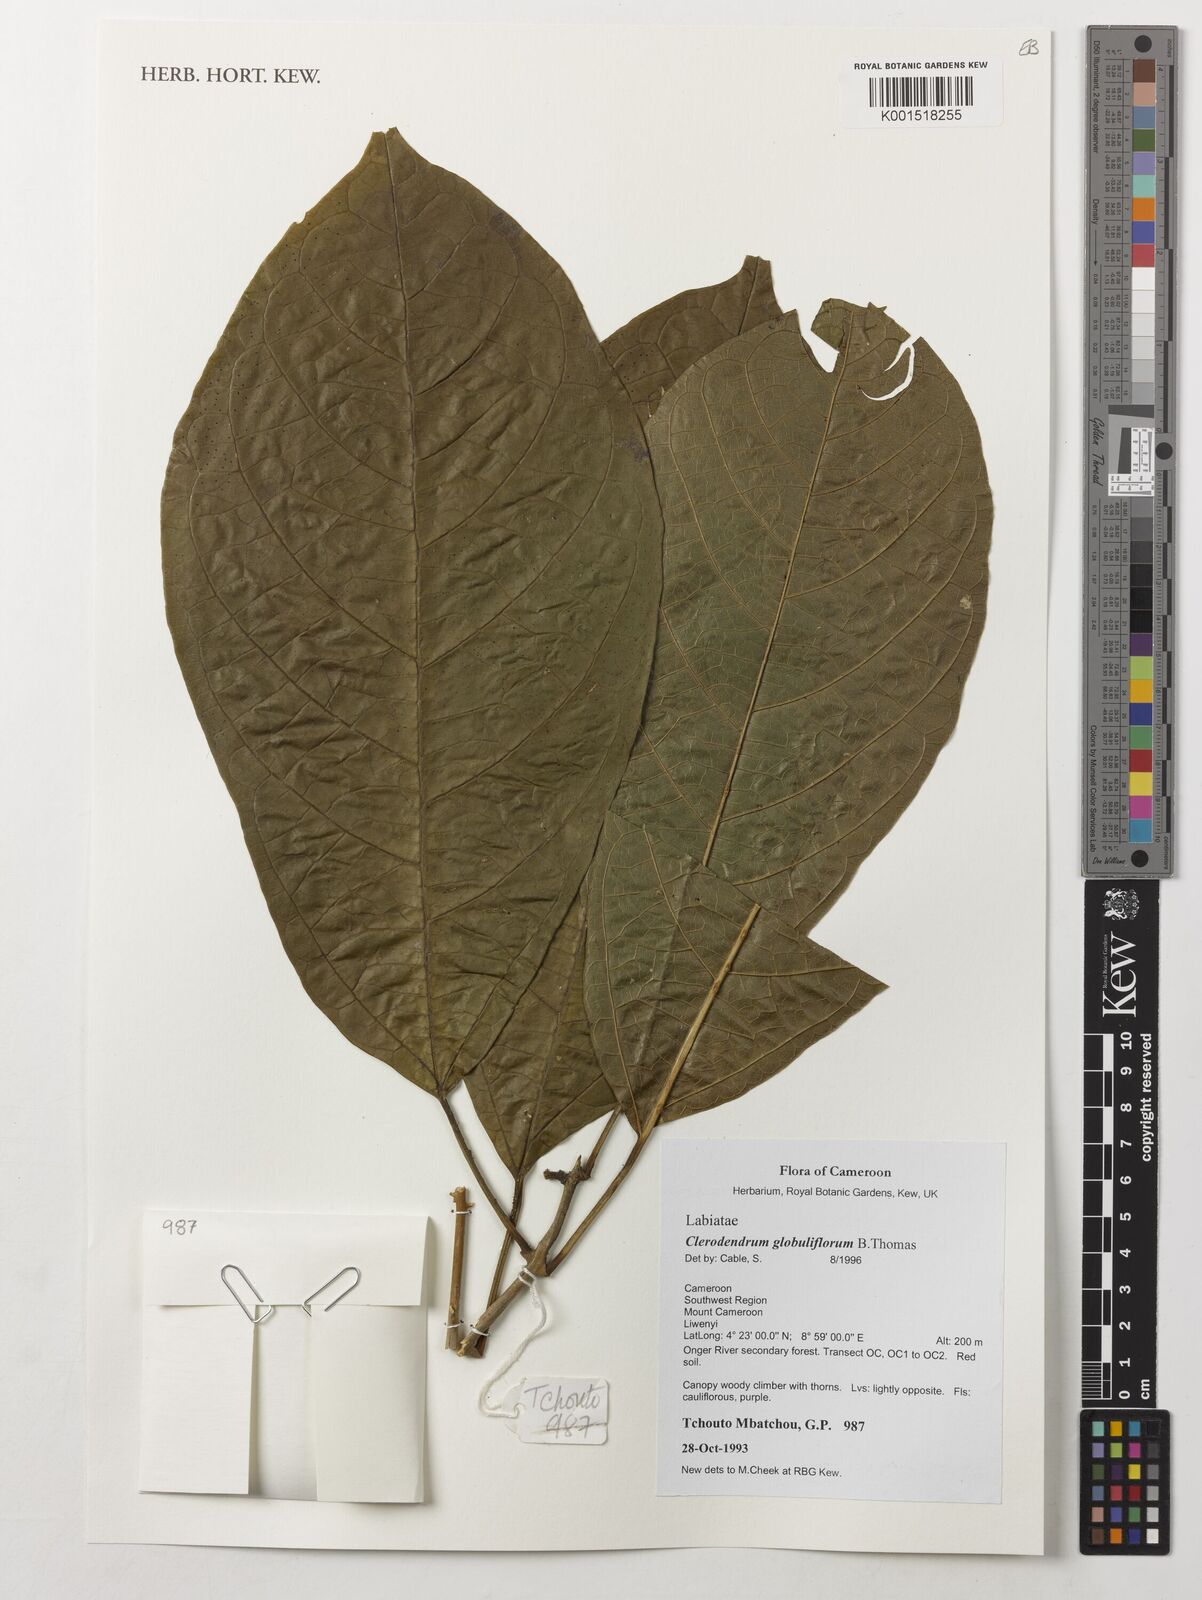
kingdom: Plantae
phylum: Tracheophyta
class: Magnoliopsida
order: Lamiales
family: Lamiaceae
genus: Clerodendrum
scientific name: Clerodendrum globuliflorum
